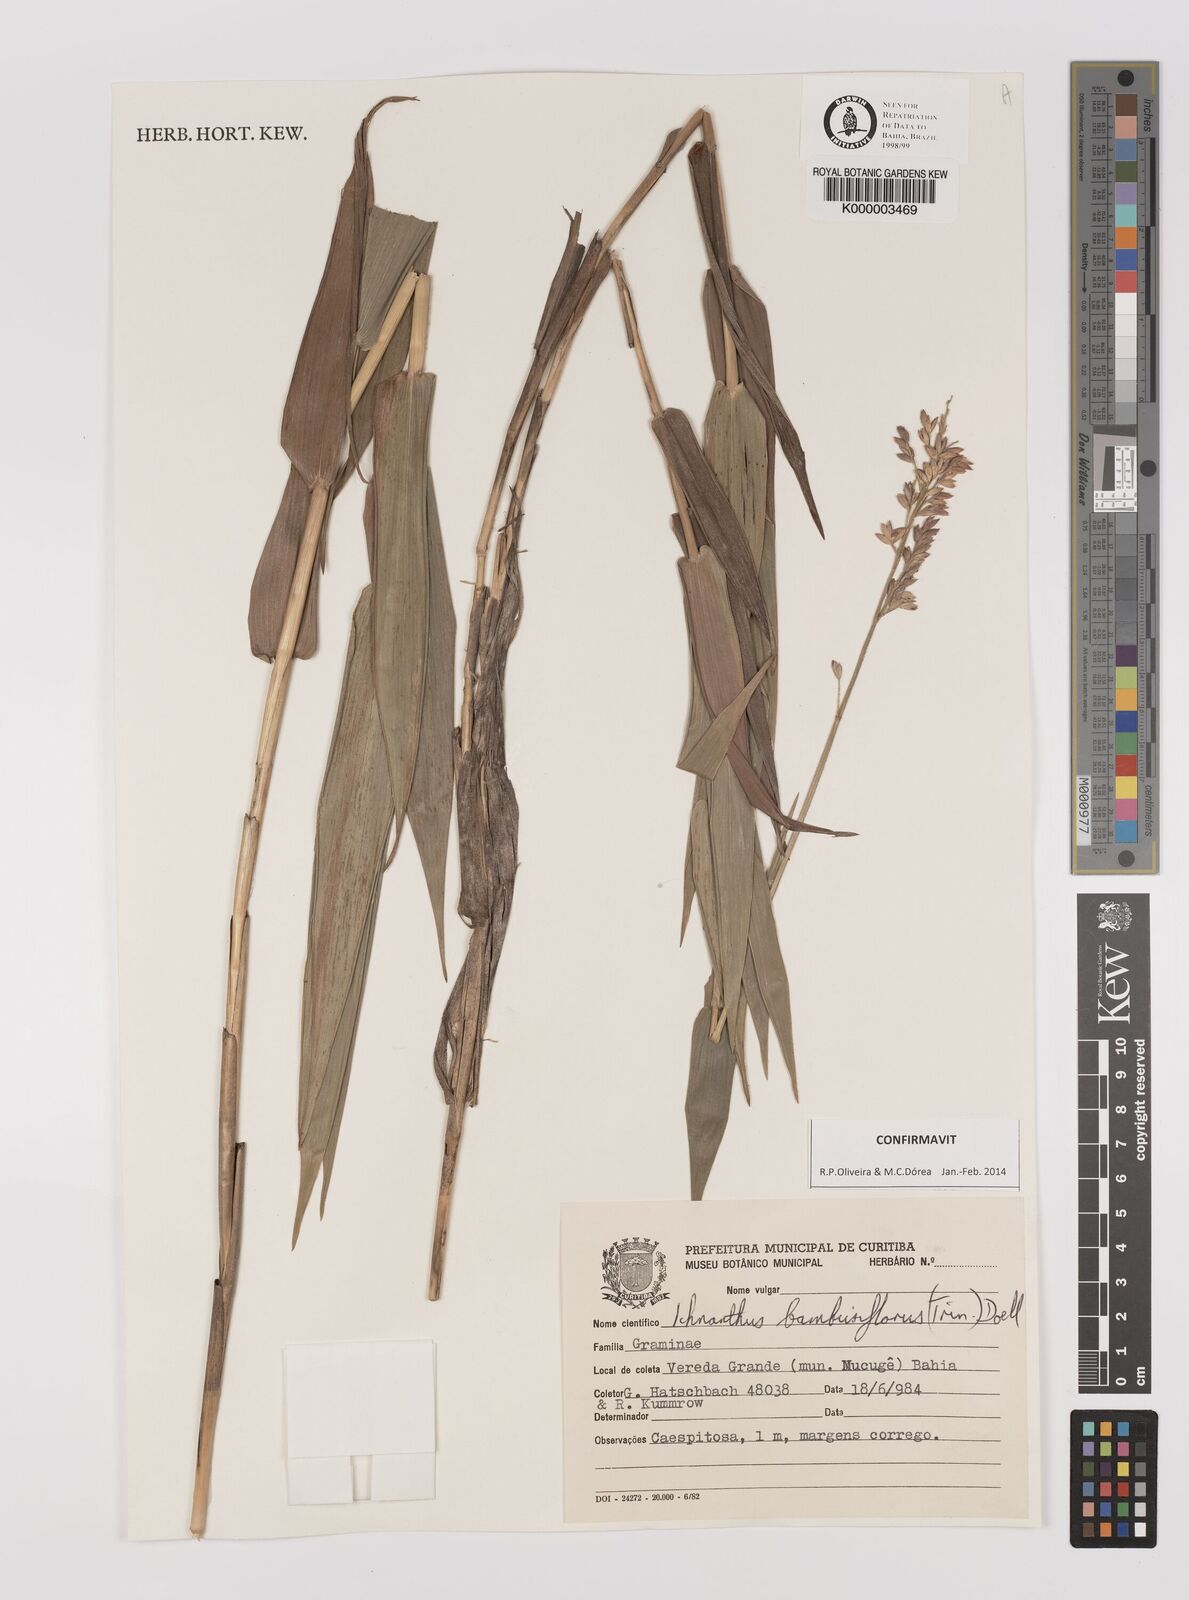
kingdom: Plantae
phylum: Tracheophyta
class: Liliopsida
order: Poales
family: Poaceae
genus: Ichnanthus
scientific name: Ichnanthus
